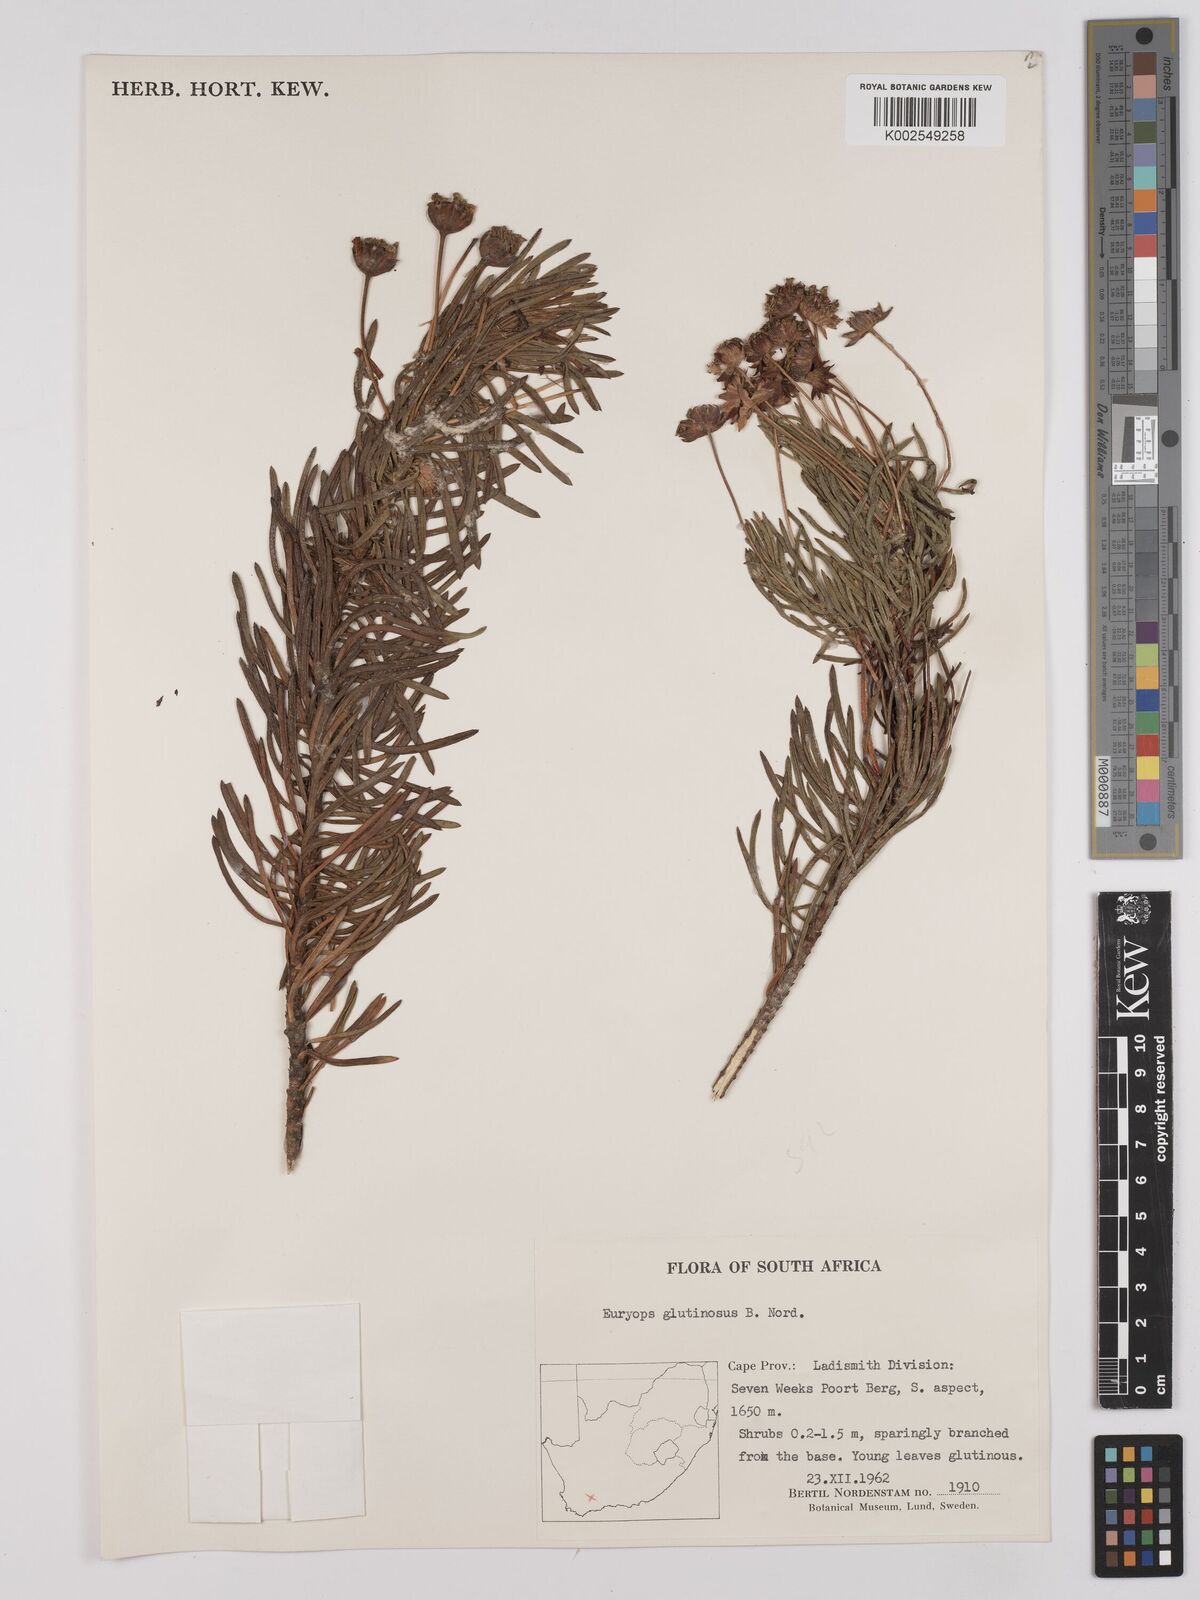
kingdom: Plantae
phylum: Tracheophyta
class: Magnoliopsida
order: Asterales
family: Asteraceae
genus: Euryops
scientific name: Euryops glutinosus
